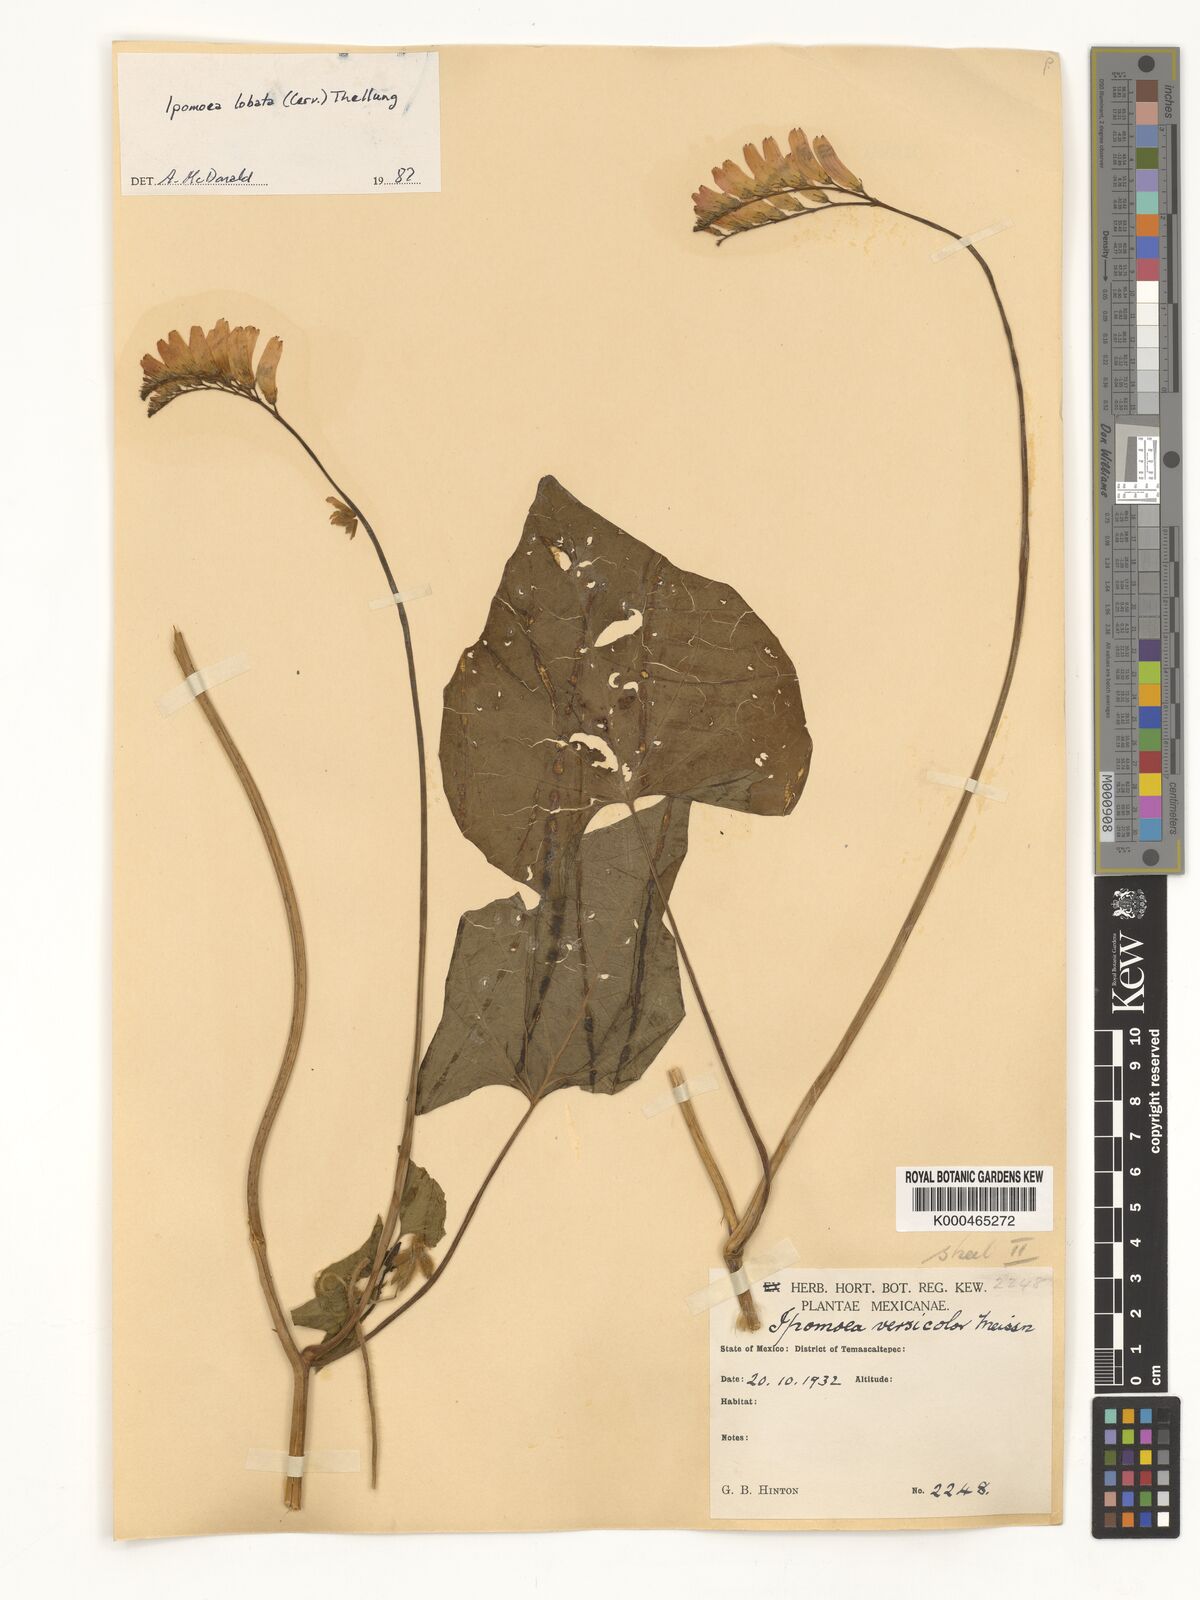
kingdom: Plantae
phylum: Tracheophyta
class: Magnoliopsida
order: Solanales
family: Convolvulaceae
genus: Ipomoea
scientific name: Ipomoea lobata
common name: Spanish-flag
